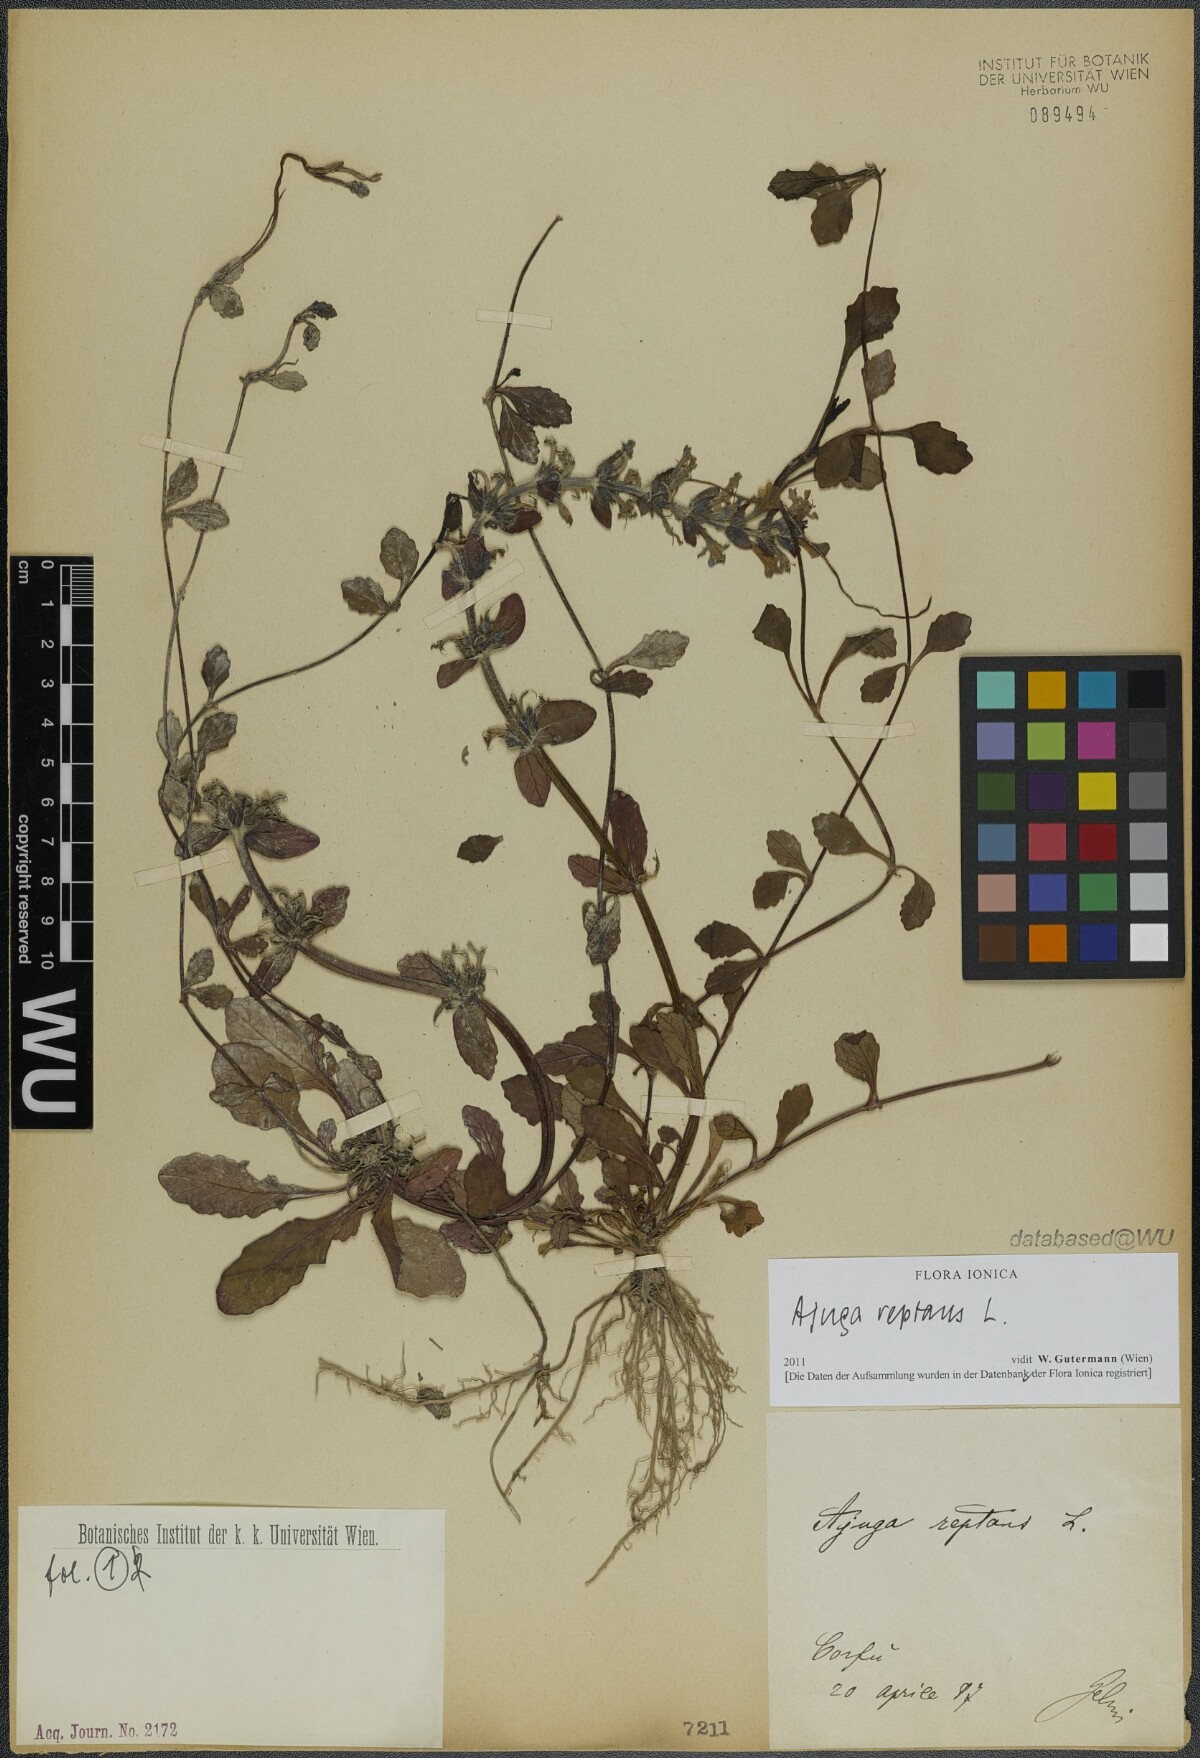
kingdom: Plantae
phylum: Tracheophyta
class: Magnoliopsida
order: Lamiales
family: Lamiaceae
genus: Ajuga
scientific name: Ajuga reptans
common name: Bugle
